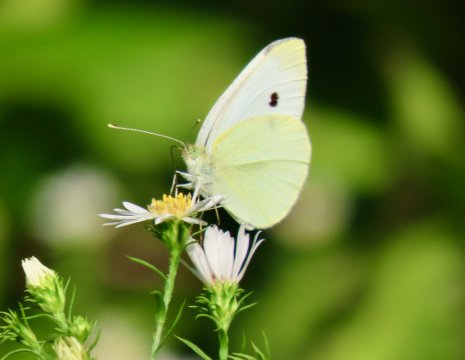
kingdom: Animalia
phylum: Arthropoda
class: Insecta
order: Lepidoptera
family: Pieridae
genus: Pieris
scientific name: Pieris rapae
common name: Cabbage White
